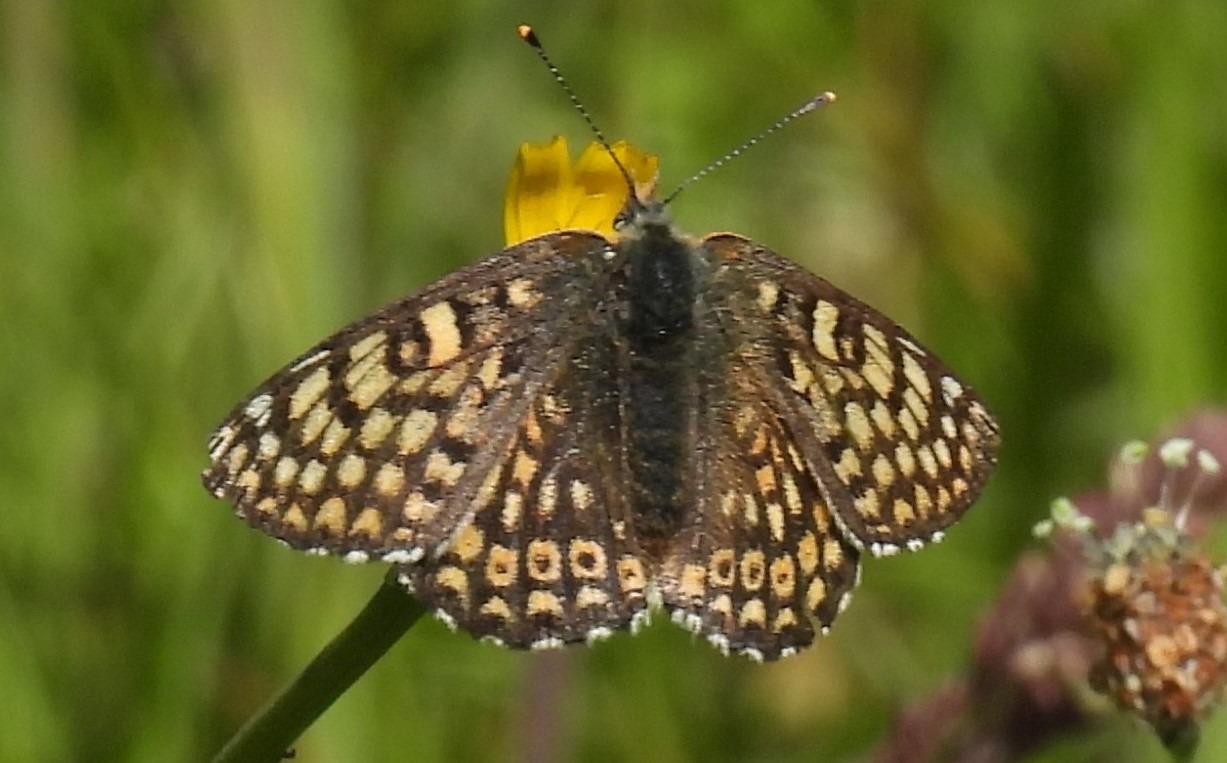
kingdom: Animalia
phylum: Arthropoda
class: Insecta
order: Lepidoptera
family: Nymphalidae
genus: Melitaea
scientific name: Melitaea cinxia
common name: Okkergul pletvinge
